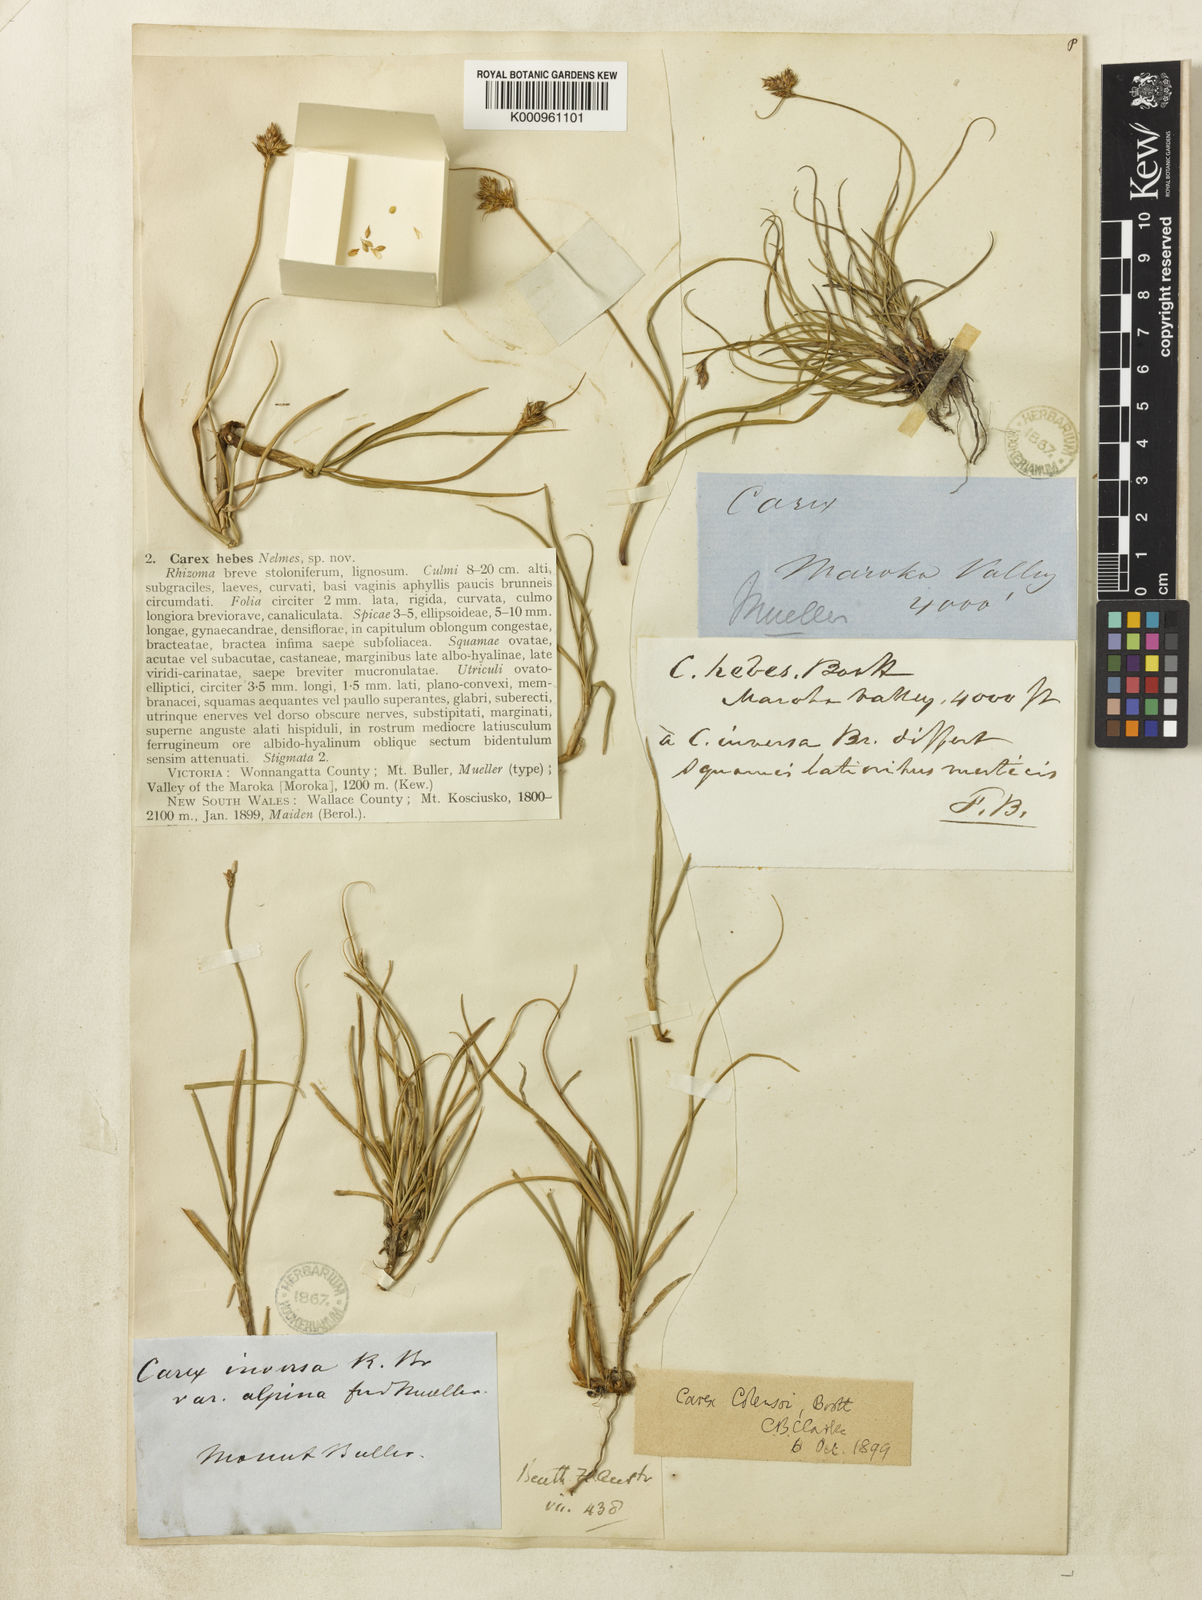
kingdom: Plantae
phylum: Tracheophyta
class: Liliopsida
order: Poales
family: Cyperaceae
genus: Carex
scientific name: Carex hebes
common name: Dry land sedge
